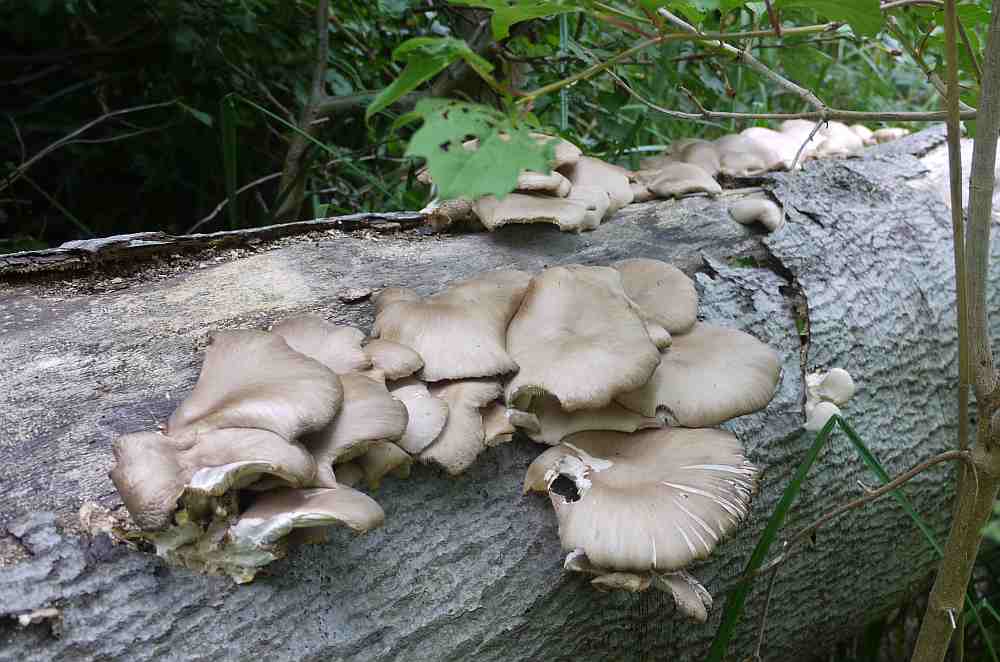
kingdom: Fungi
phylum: Basidiomycota
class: Agaricomycetes
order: Agaricales
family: Pleurotaceae
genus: Pleurotus
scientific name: Pleurotus pulmonarius
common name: sommer-østershat
